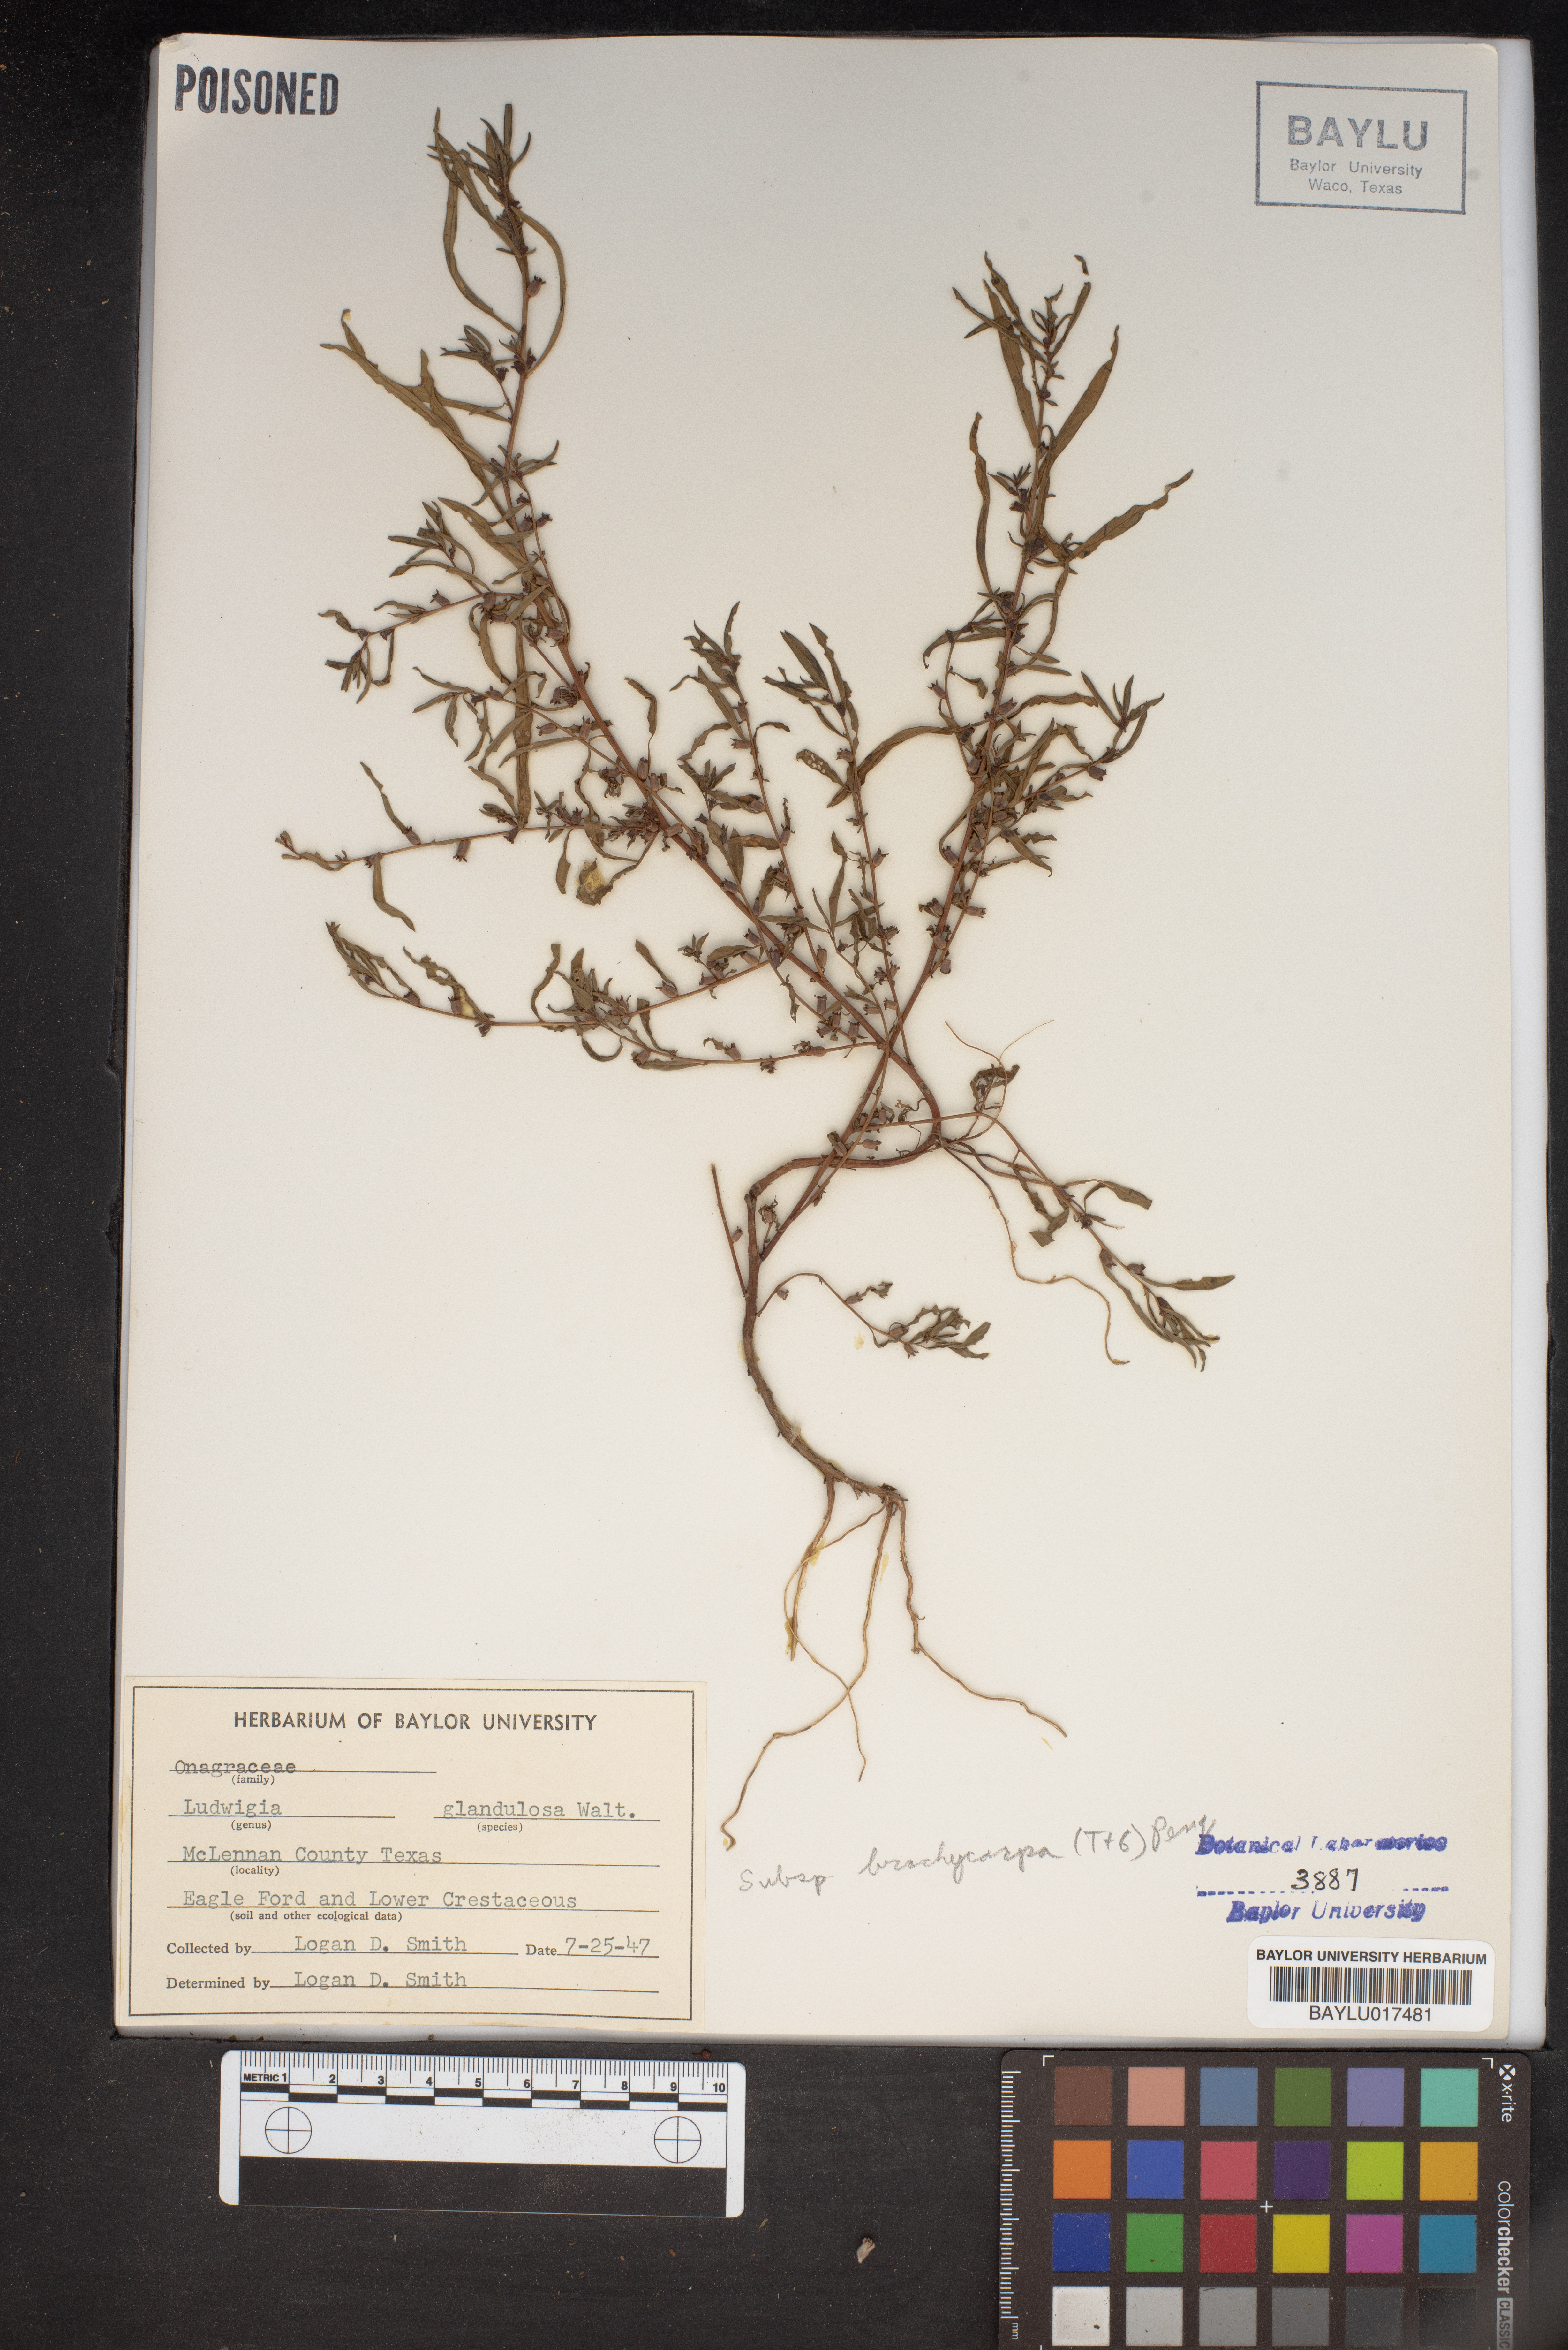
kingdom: Plantae
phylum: Tracheophyta
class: Magnoliopsida
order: Myrtales
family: Onagraceae
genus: Ludwigia
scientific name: Ludwigia glandulosa
